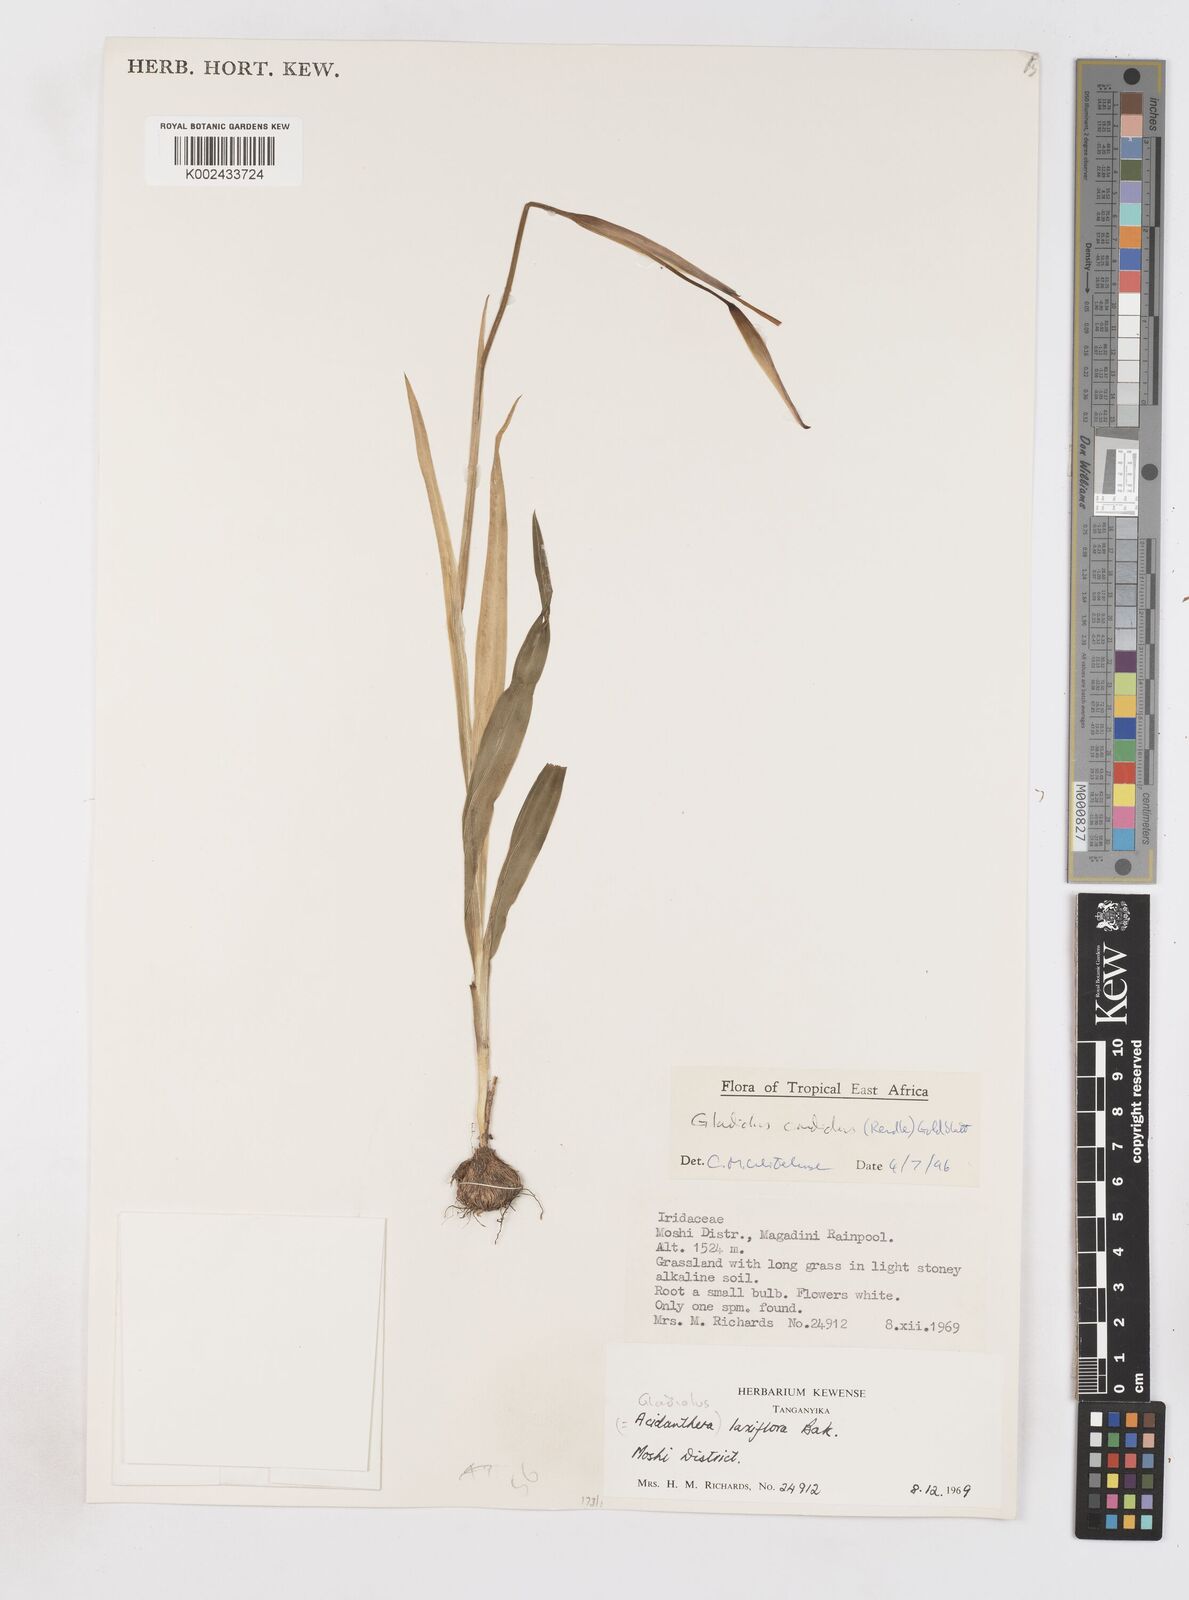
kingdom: Plantae
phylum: Tracheophyta
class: Liliopsida
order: Asparagales
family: Iridaceae
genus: Gladiolus
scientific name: Gladiolus candidus
